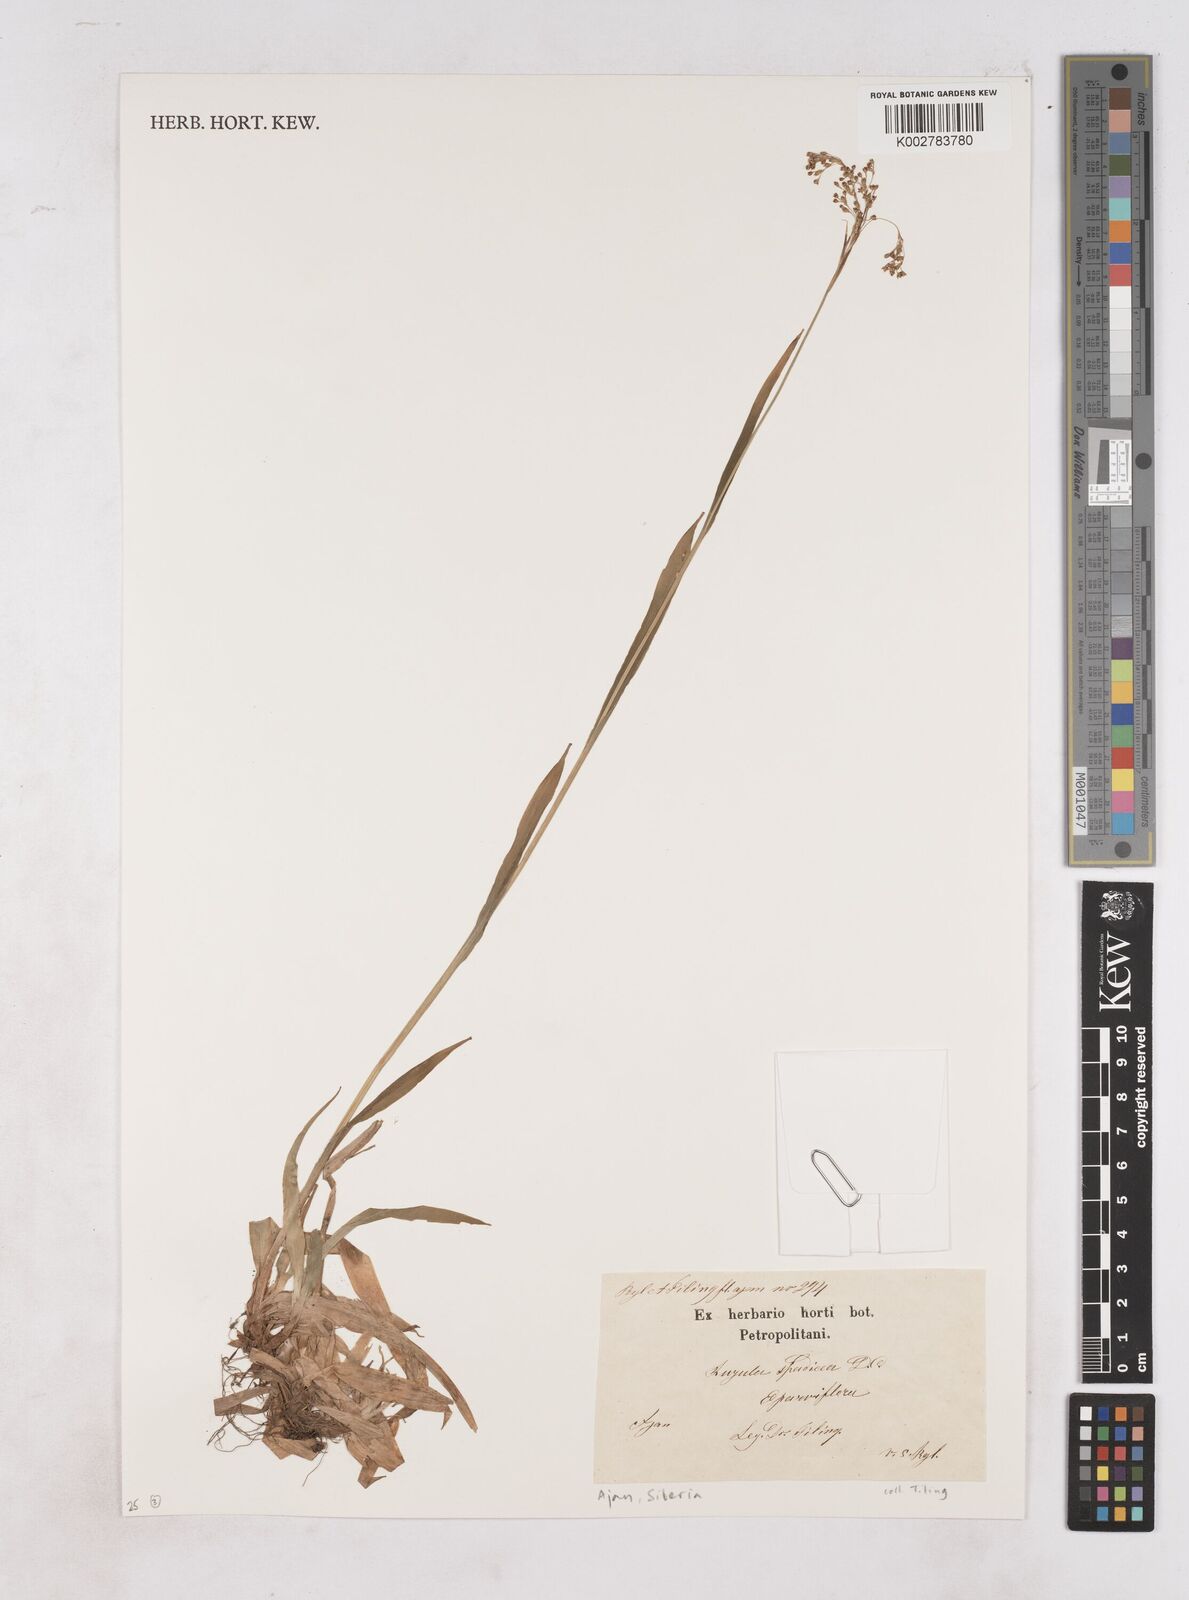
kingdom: Plantae
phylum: Tracheophyta
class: Liliopsida
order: Poales
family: Juncaceae
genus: Luzula
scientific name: Luzula alpinopilosa
